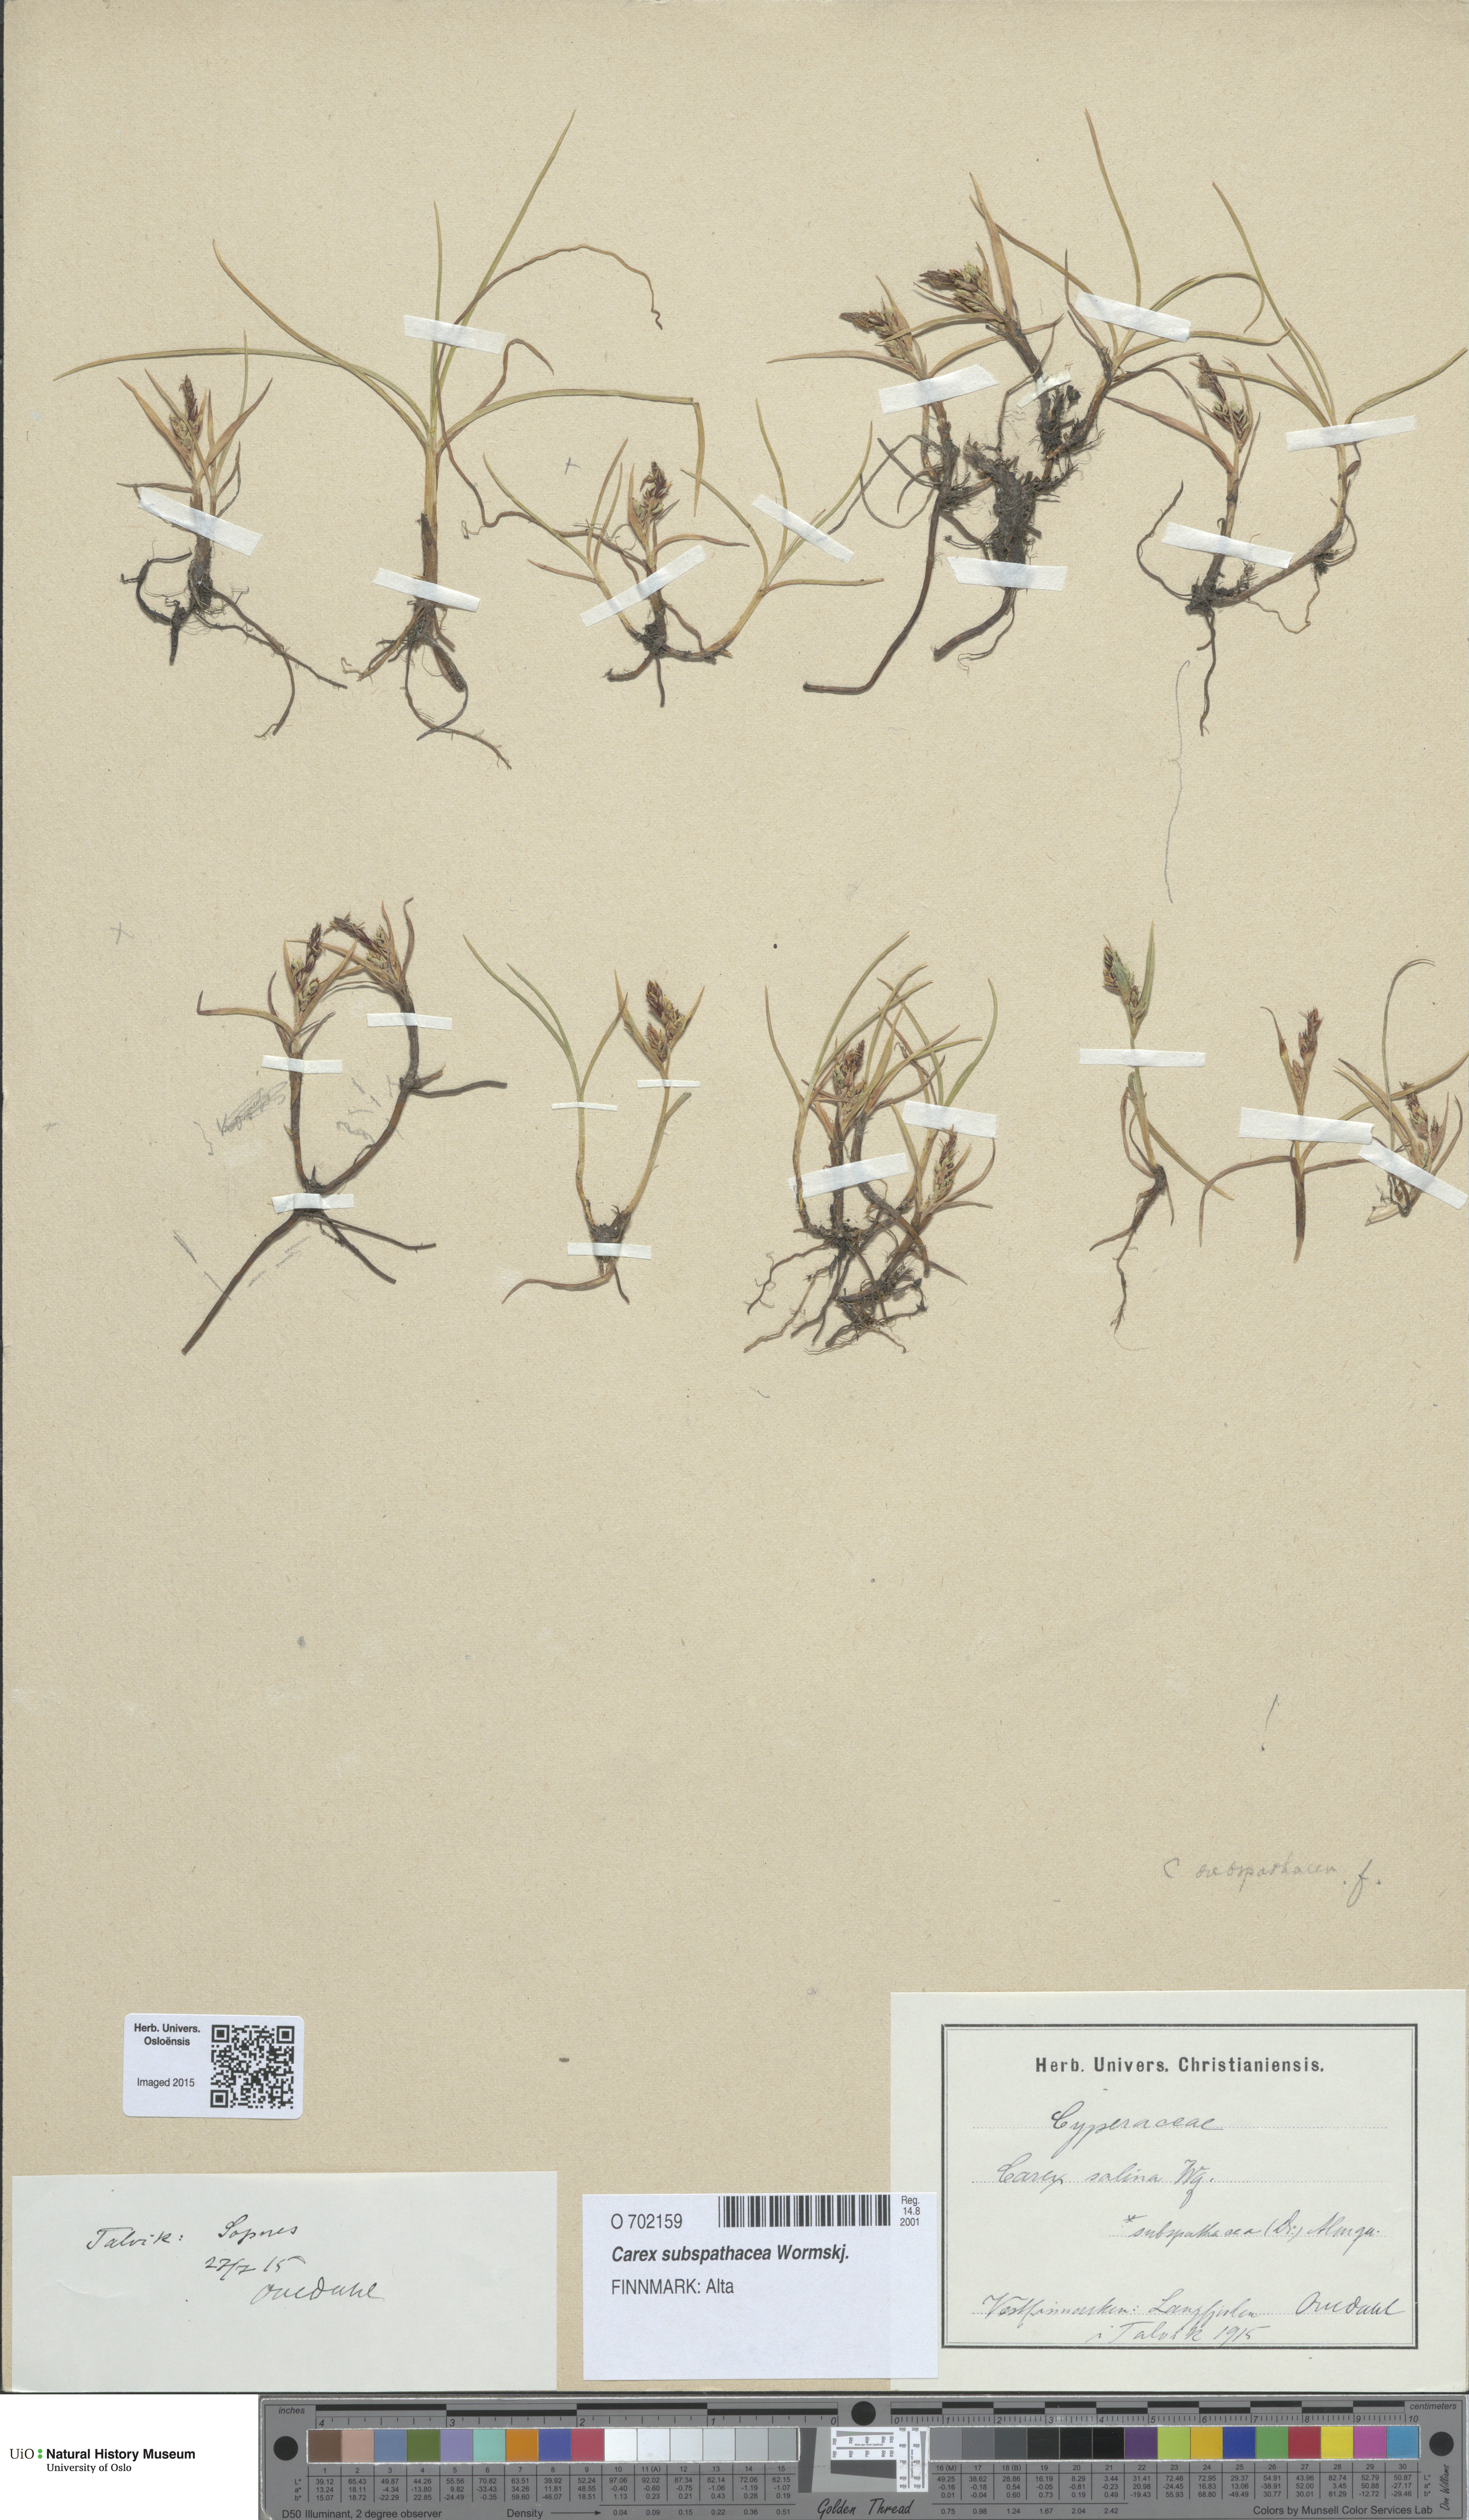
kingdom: Plantae
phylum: Tracheophyta
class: Liliopsida
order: Poales
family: Cyperaceae
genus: Carex
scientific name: Carex subspathacea
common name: Hoppner's sedge
